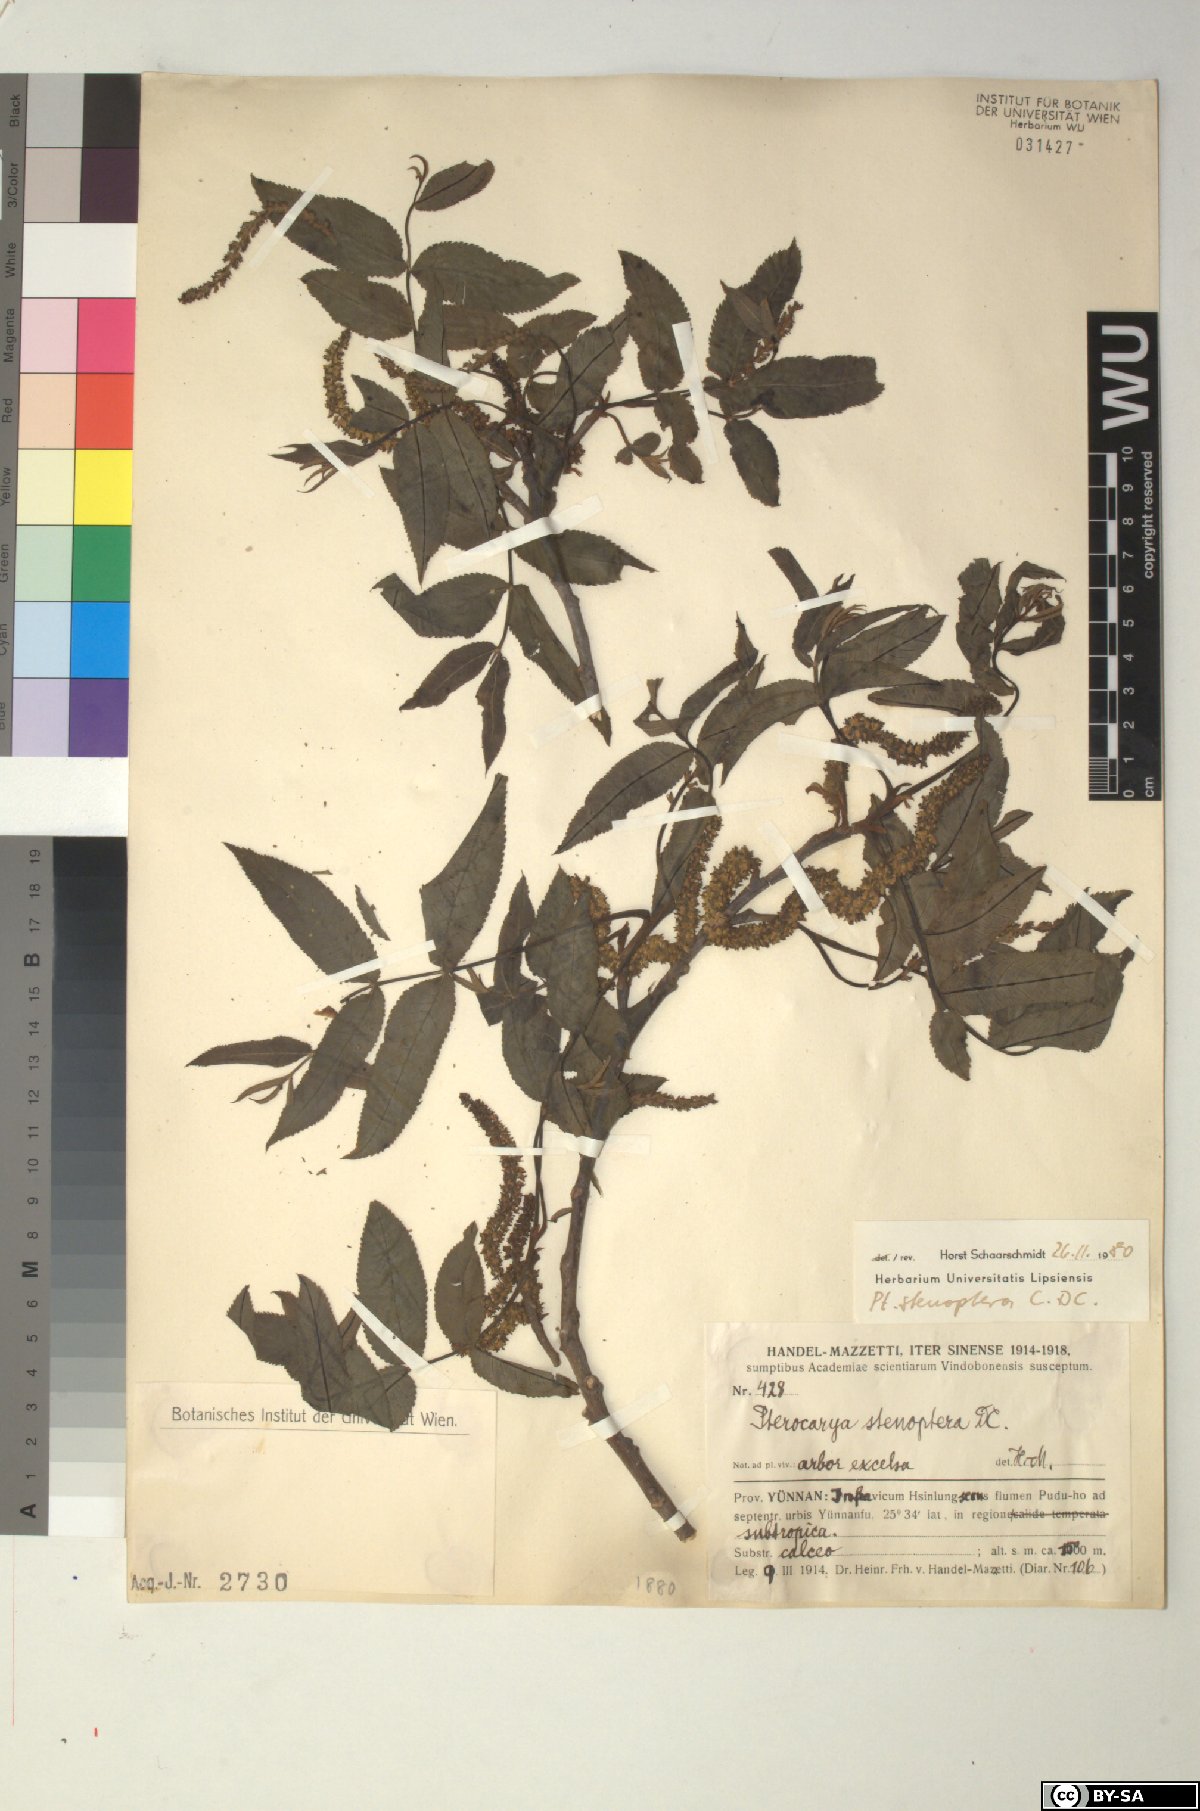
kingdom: Plantae
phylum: Tracheophyta
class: Magnoliopsida
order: Fagales
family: Juglandaceae
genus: Pterocarya
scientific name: Pterocarya stenoptera
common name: Chinese wingnut
